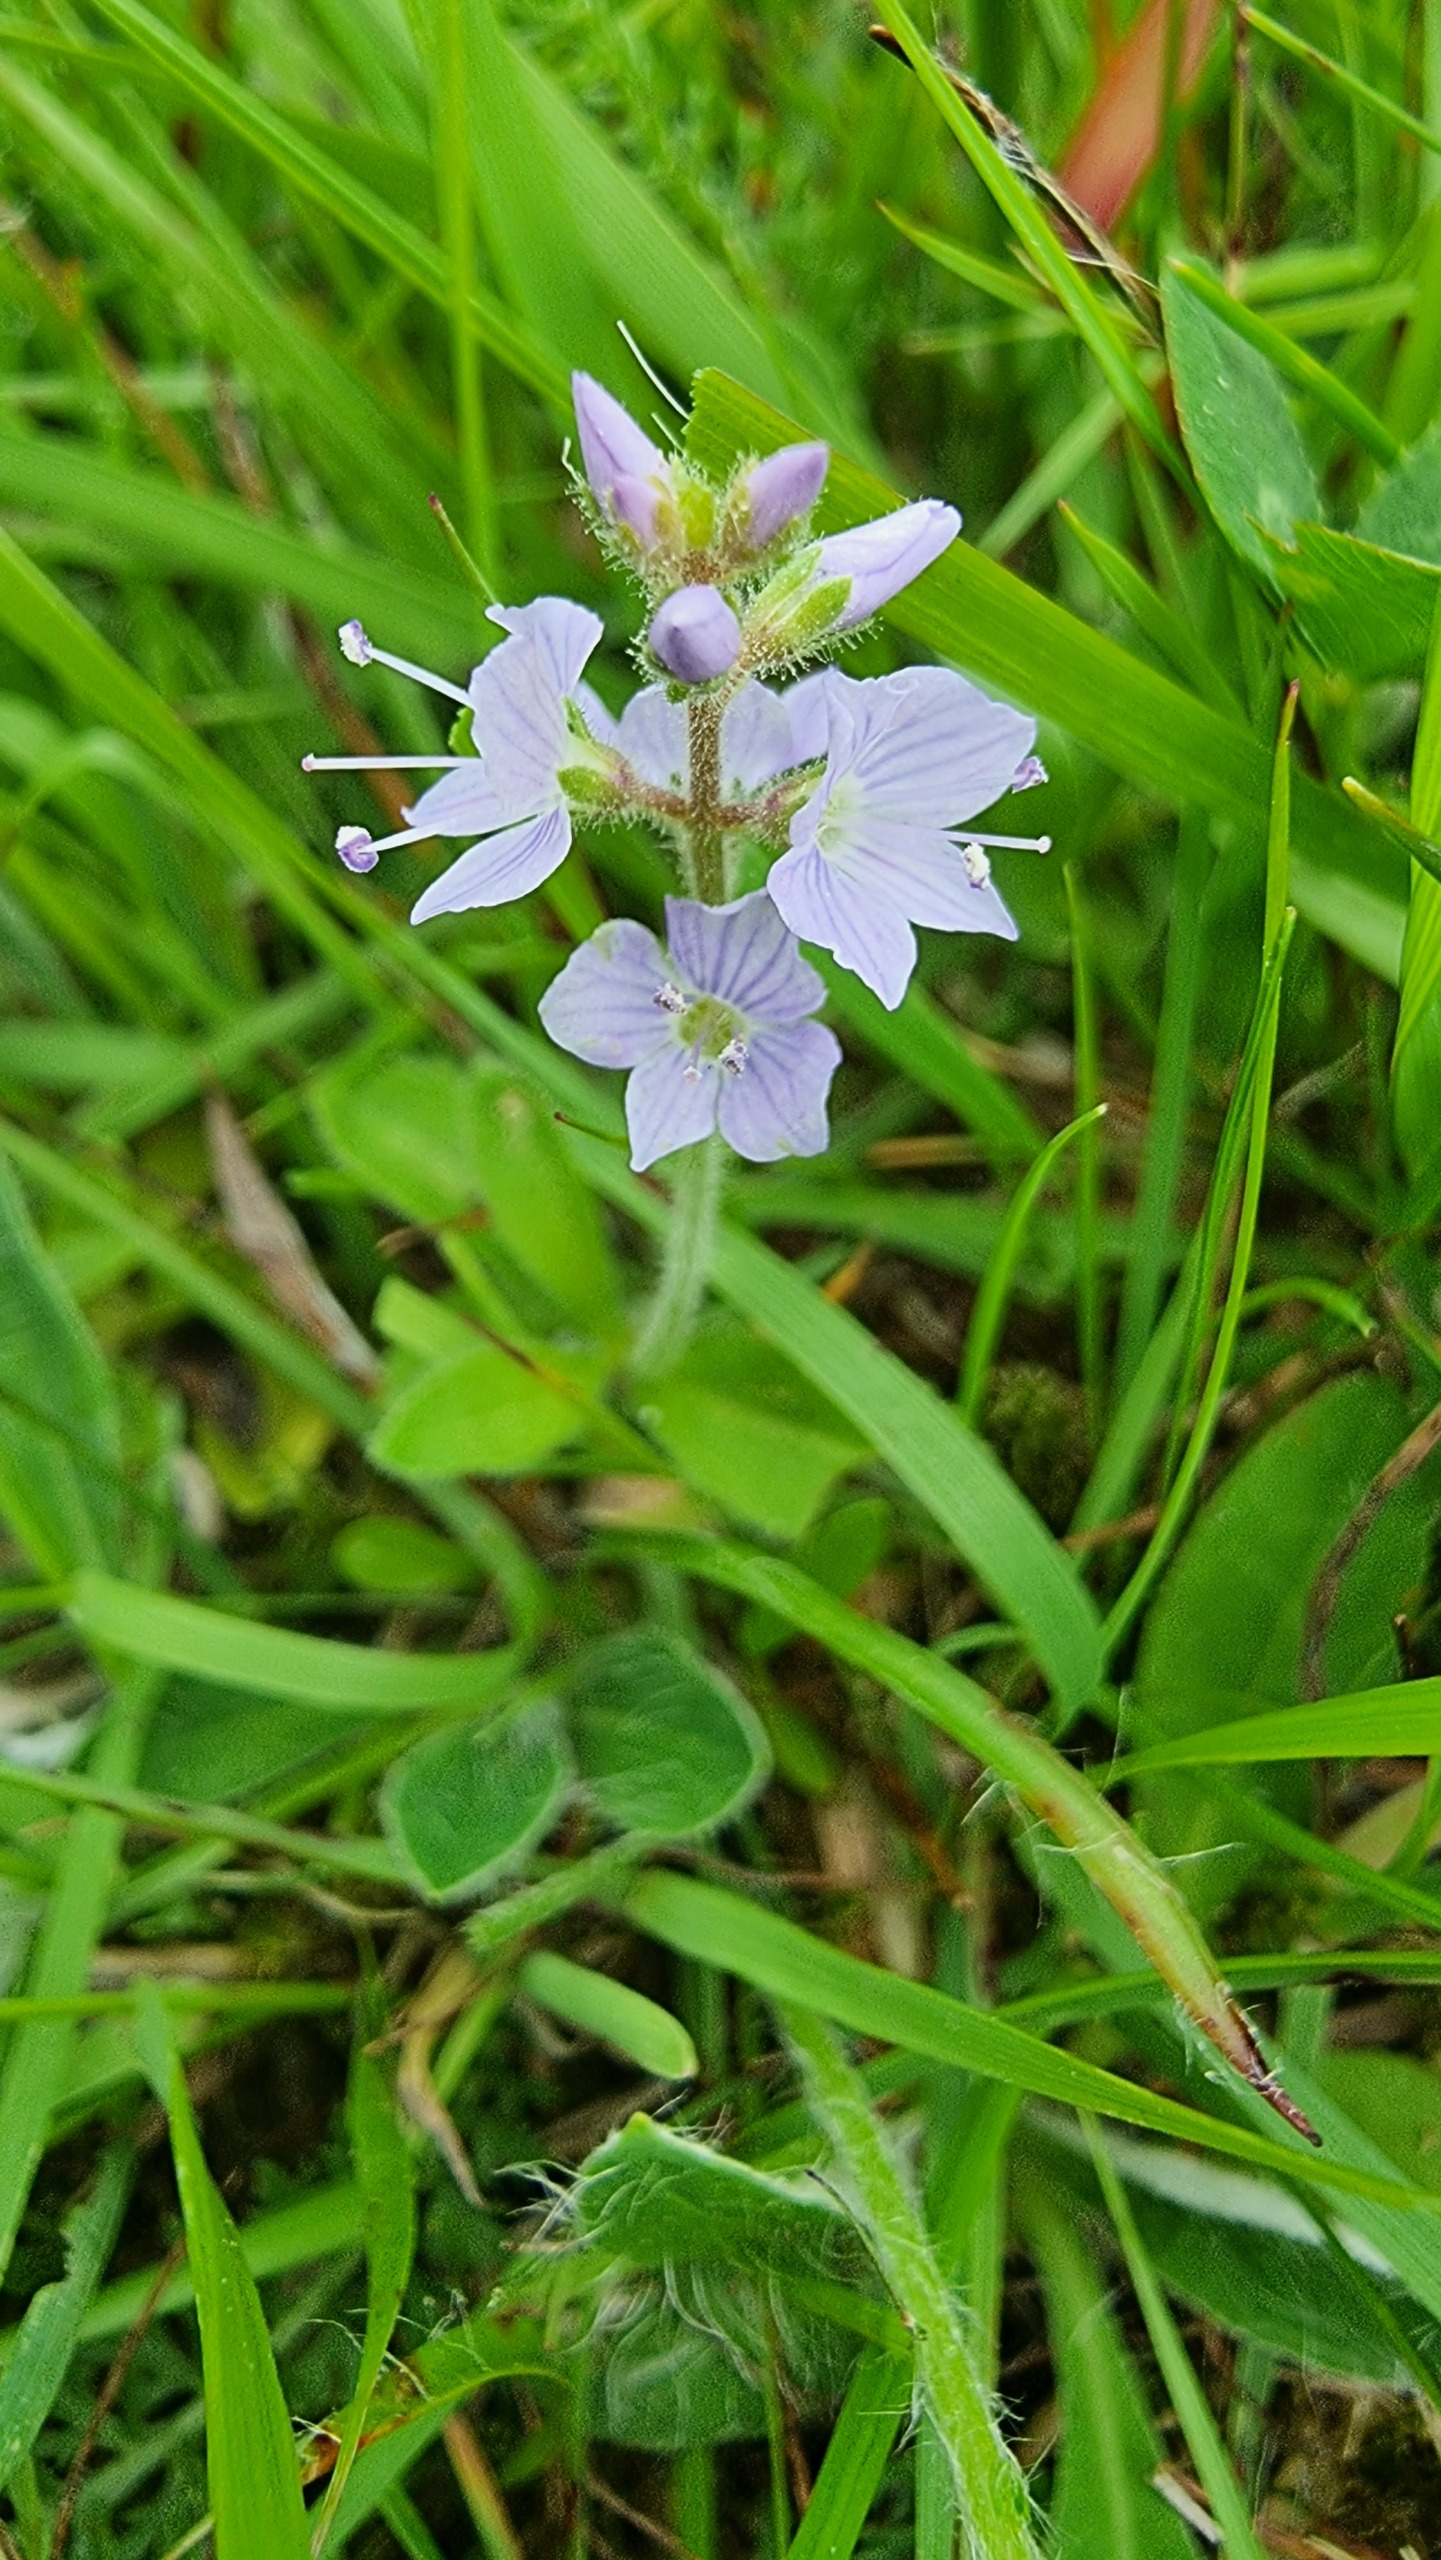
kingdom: Plantae
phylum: Tracheophyta
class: Magnoliopsida
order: Lamiales
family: Plantaginaceae
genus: Veronica
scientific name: Veronica officinalis
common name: Læge-ærenpris
